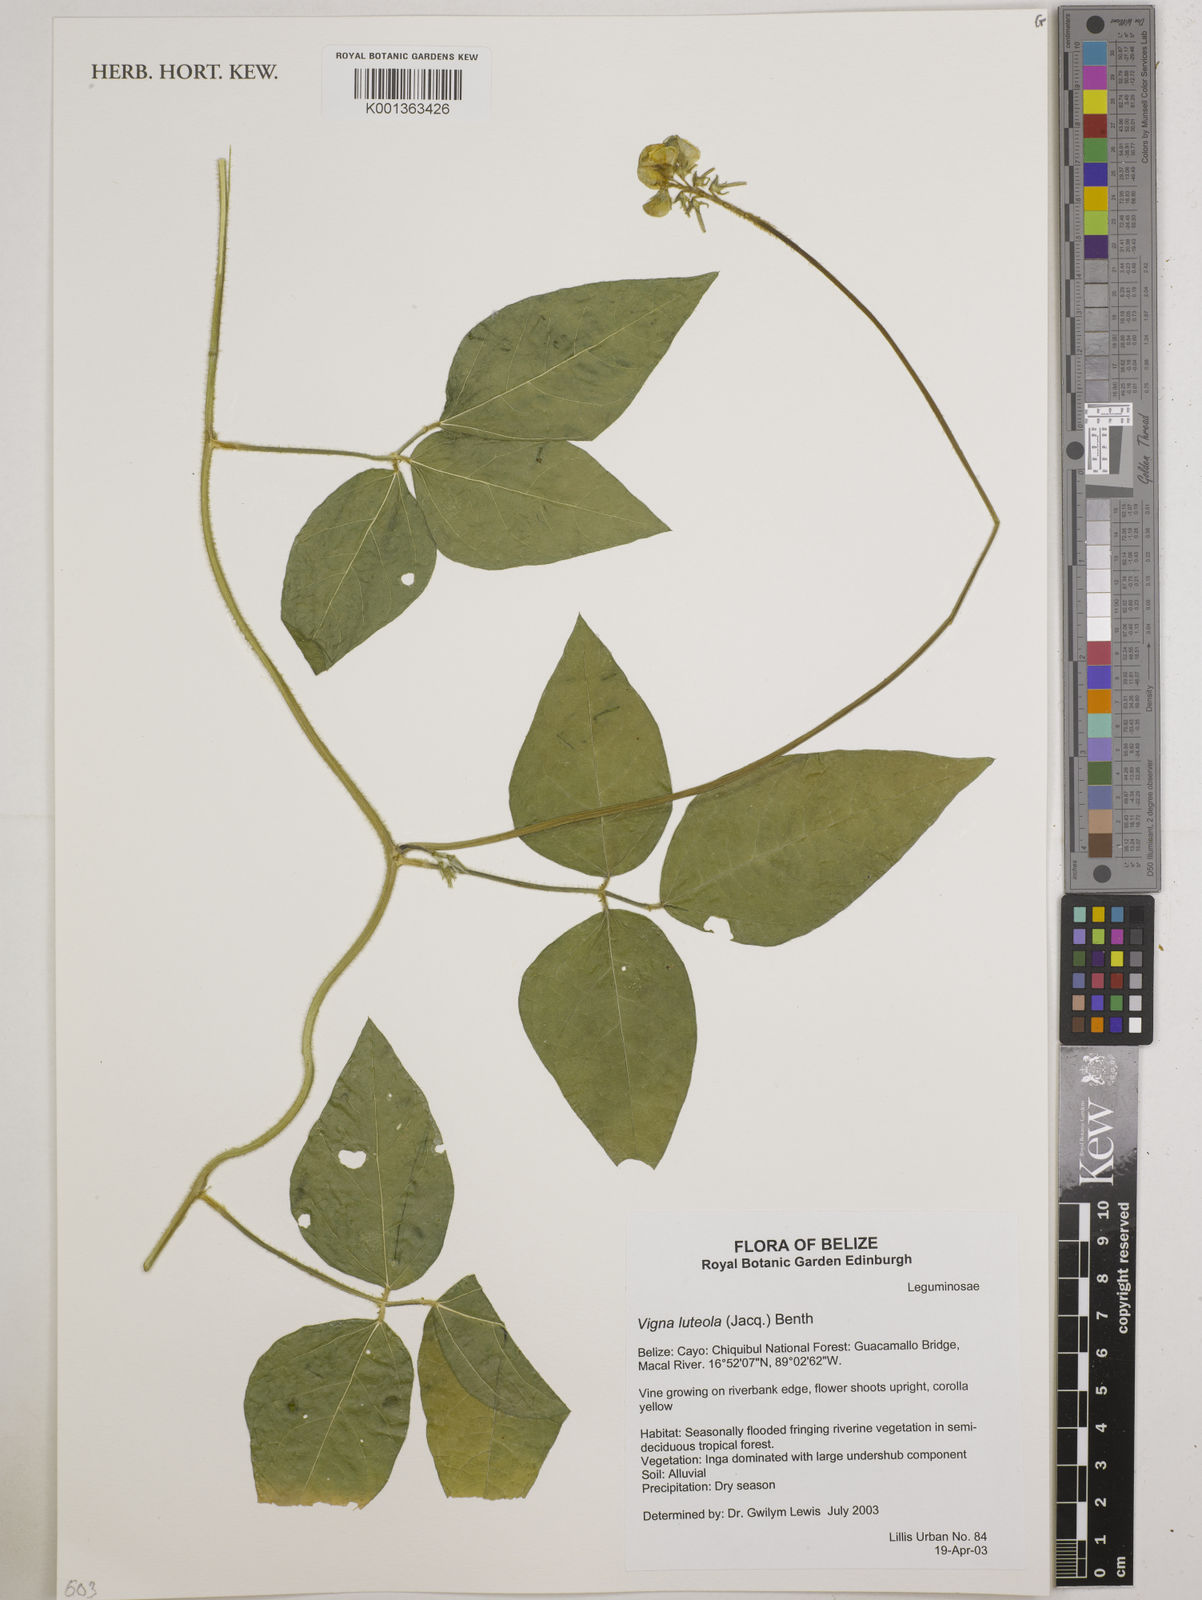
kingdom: Plantae
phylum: Tracheophyta
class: Magnoliopsida
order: Fabales
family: Fabaceae
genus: Vigna
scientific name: Vigna luteola
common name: Hairypod cowpea
